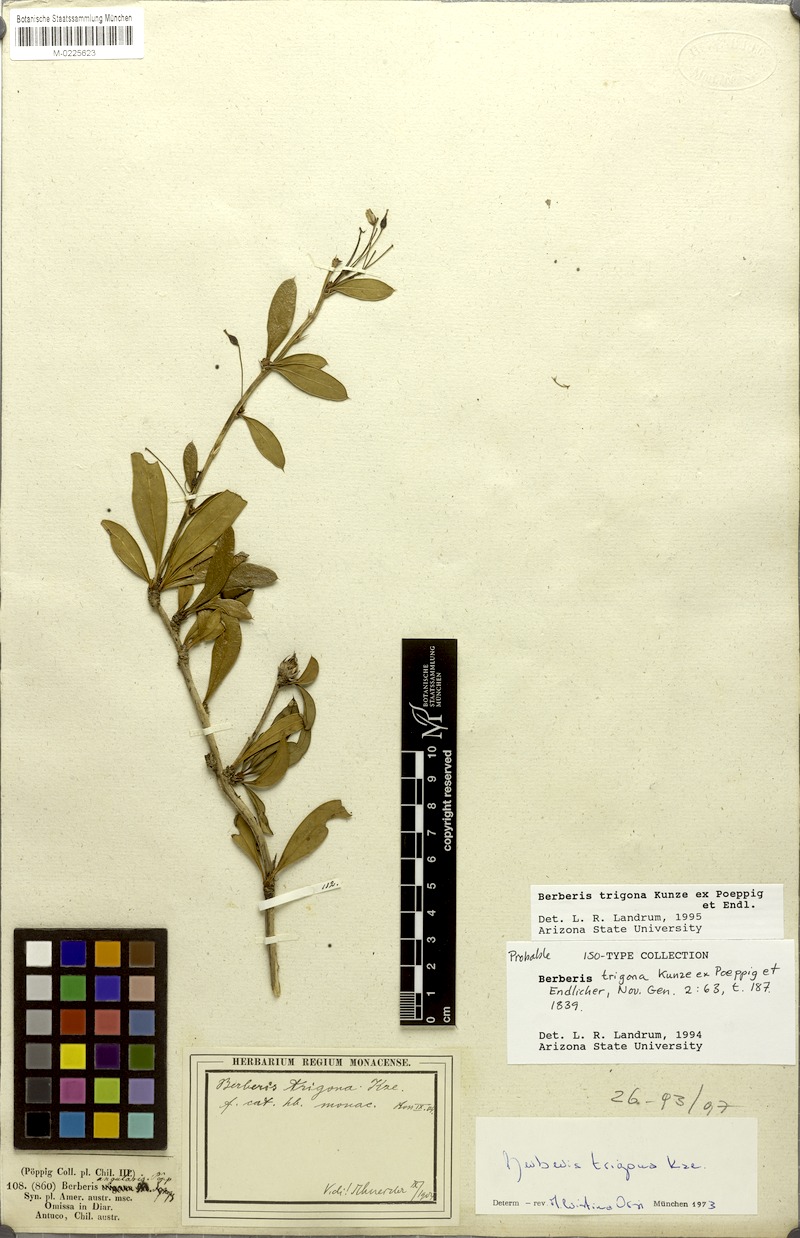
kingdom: Plantae
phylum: Tracheophyta
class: Magnoliopsida
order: Ranunculales
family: Berberidaceae
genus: Berberis
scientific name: Berberis trigona
